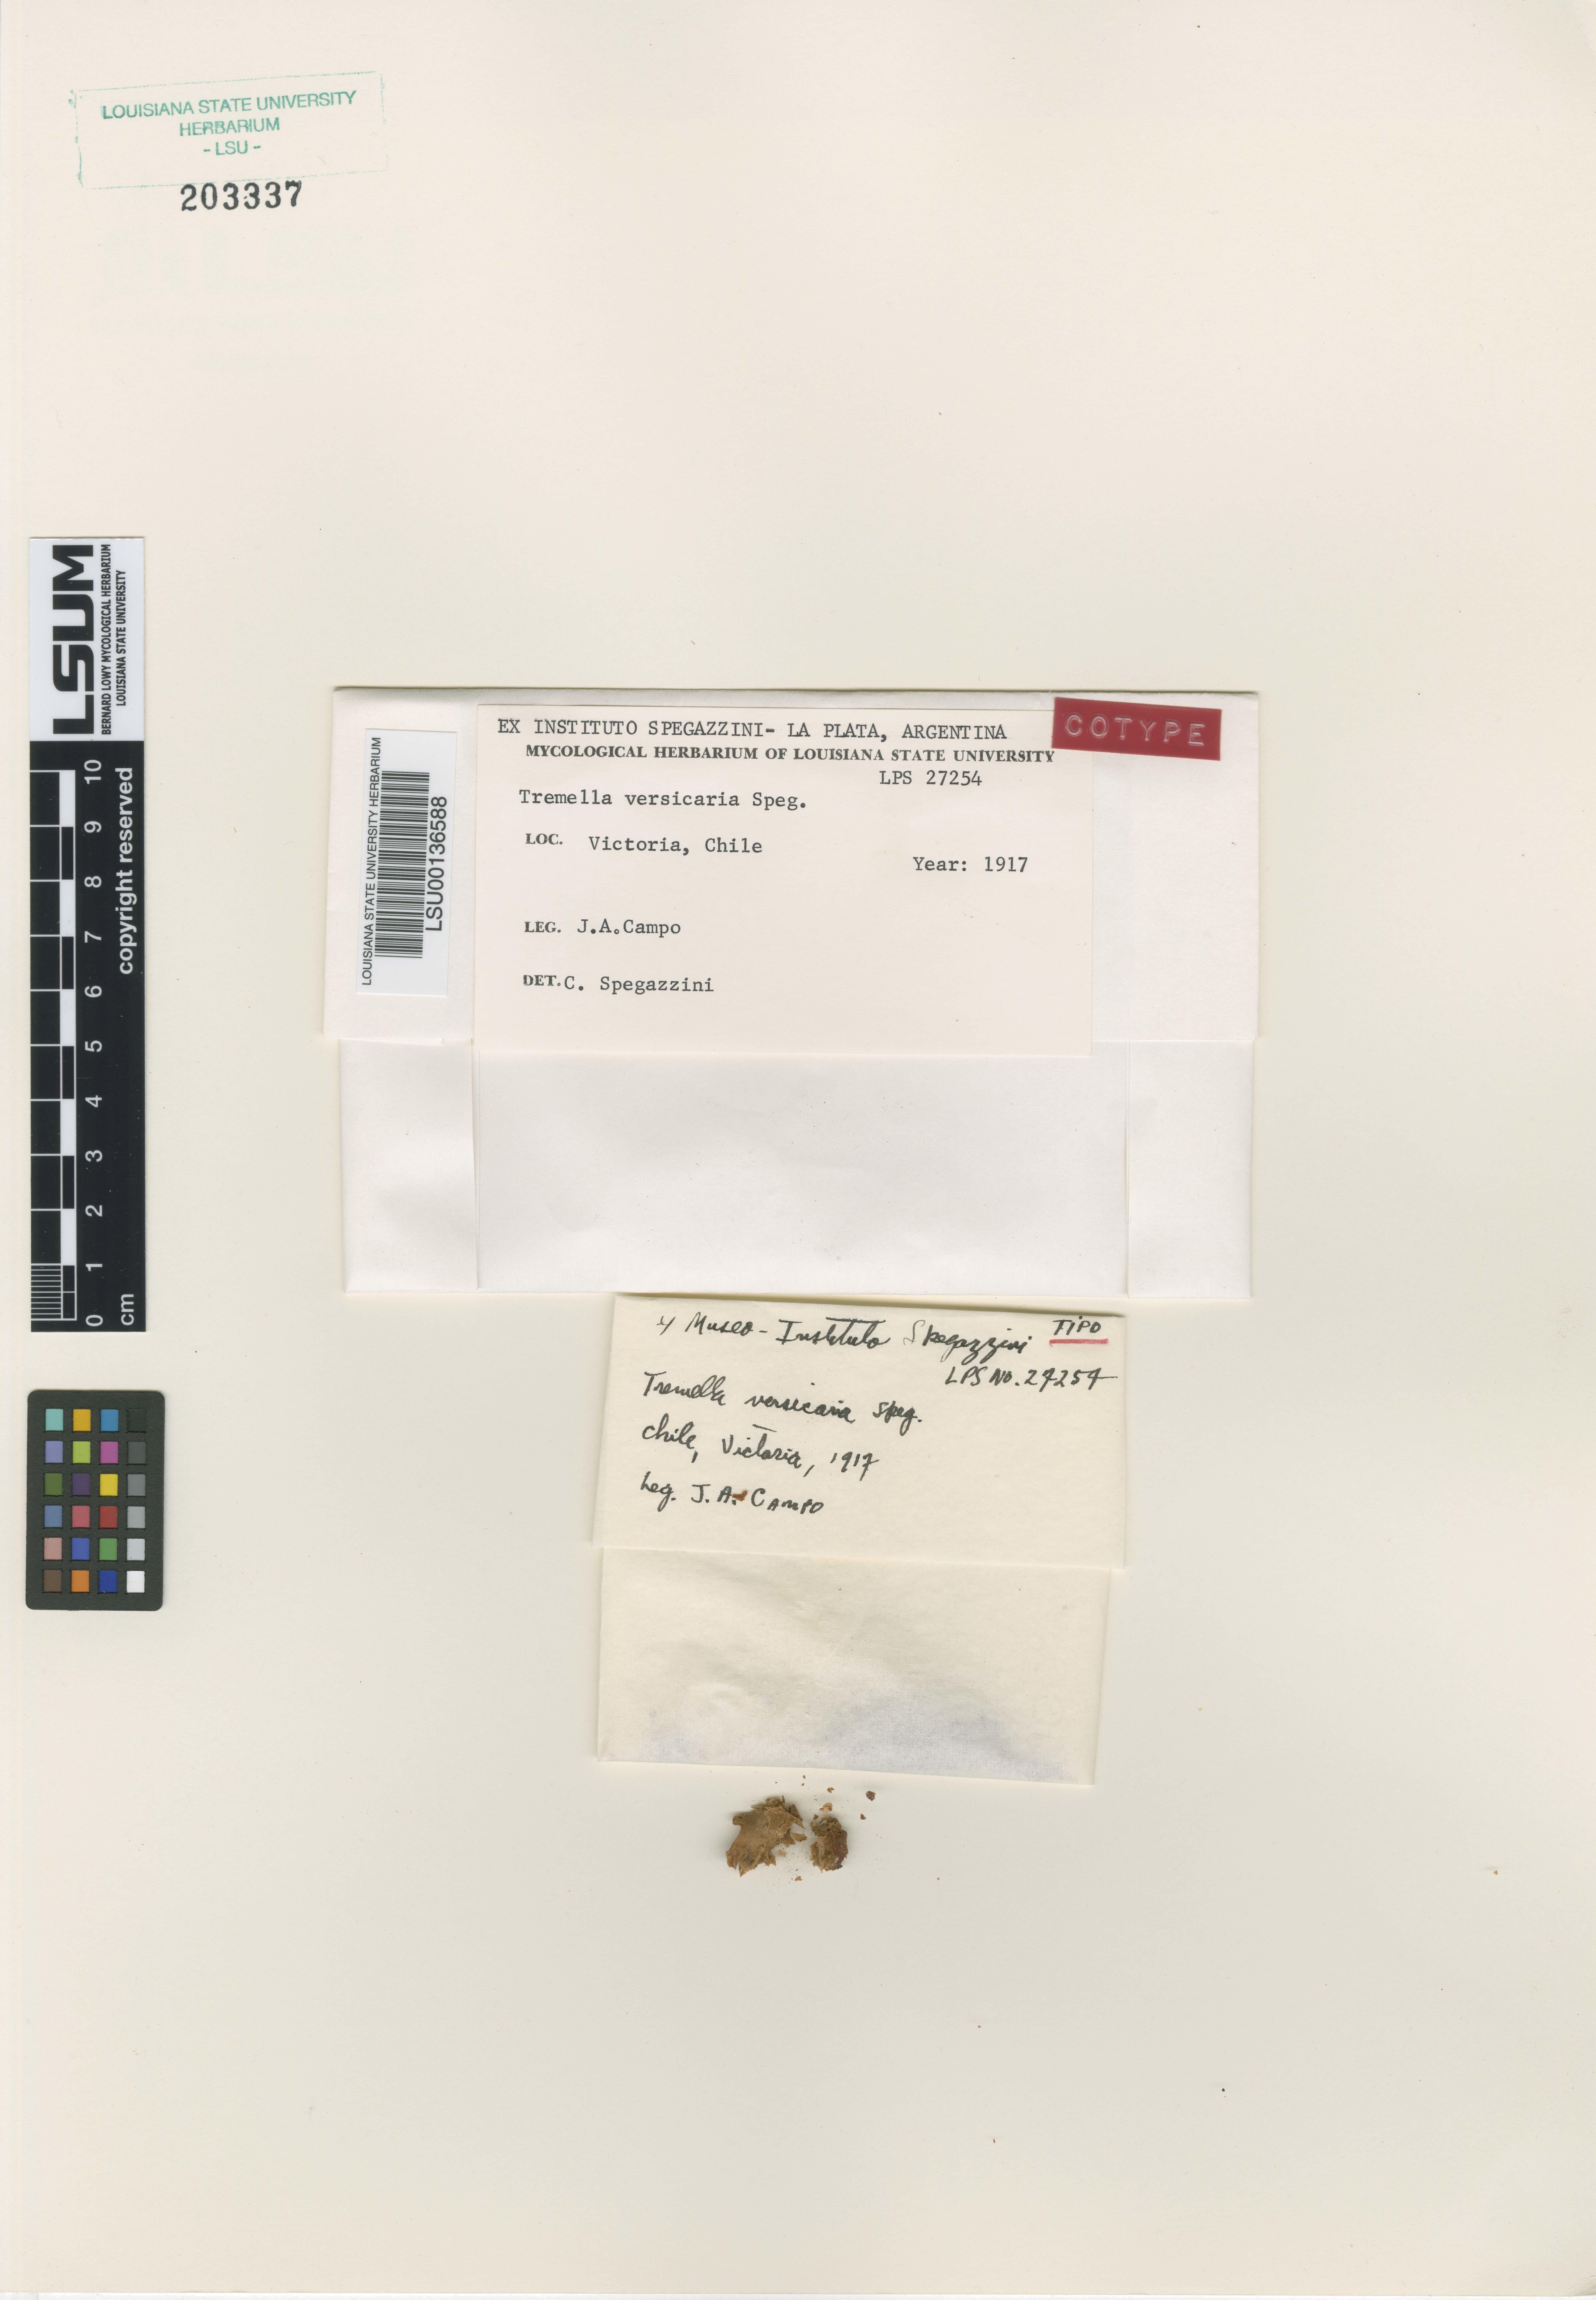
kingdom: Fungi
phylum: Basidiomycota
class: Tremellomycetes
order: Tremellales
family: Tremellaceae
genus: Tremella
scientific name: Tremella vescicaria
